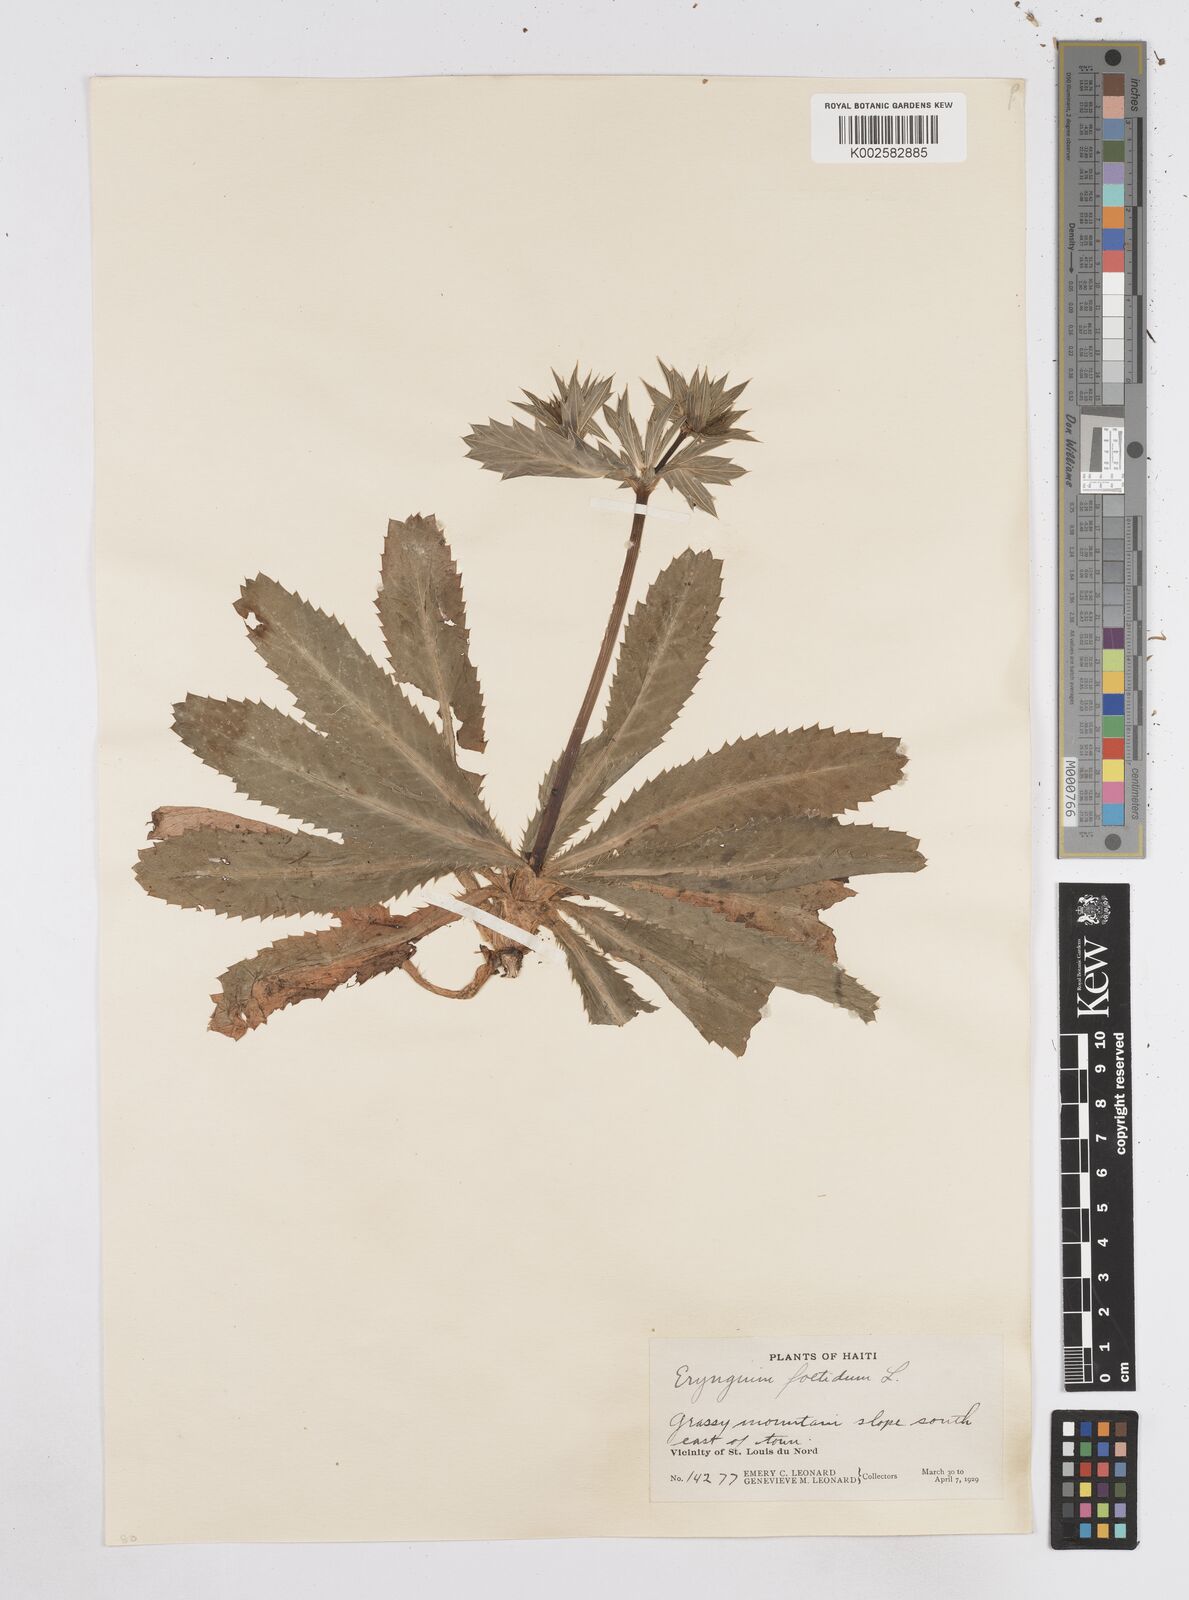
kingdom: Plantae
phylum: Tracheophyta
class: Magnoliopsida
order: Apiales
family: Apiaceae
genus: Eryngium
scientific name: Eryngium foetidum
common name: Fitweed
